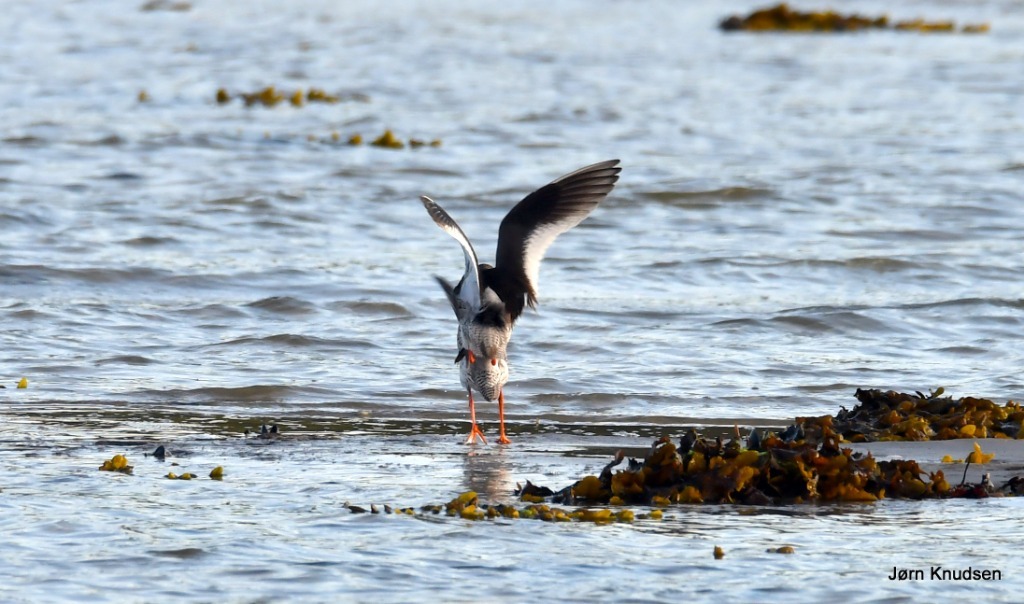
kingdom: Animalia
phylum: Chordata
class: Aves
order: Charadriiformes
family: Scolopacidae
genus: Tringa
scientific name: Tringa totanus
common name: Rødben
